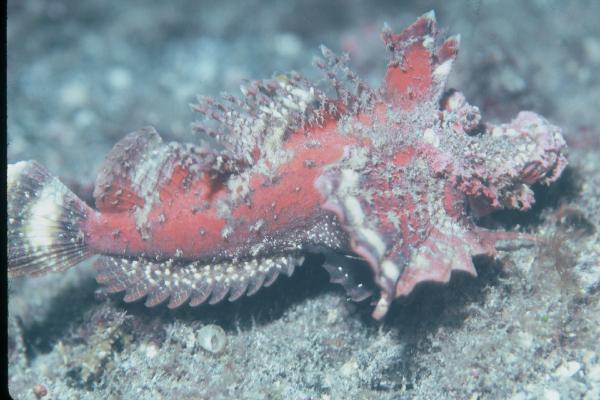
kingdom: Animalia
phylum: Chordata
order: Scorpaeniformes
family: Synanceiidae
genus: Inimicus
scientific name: Inimicus filamentosus
